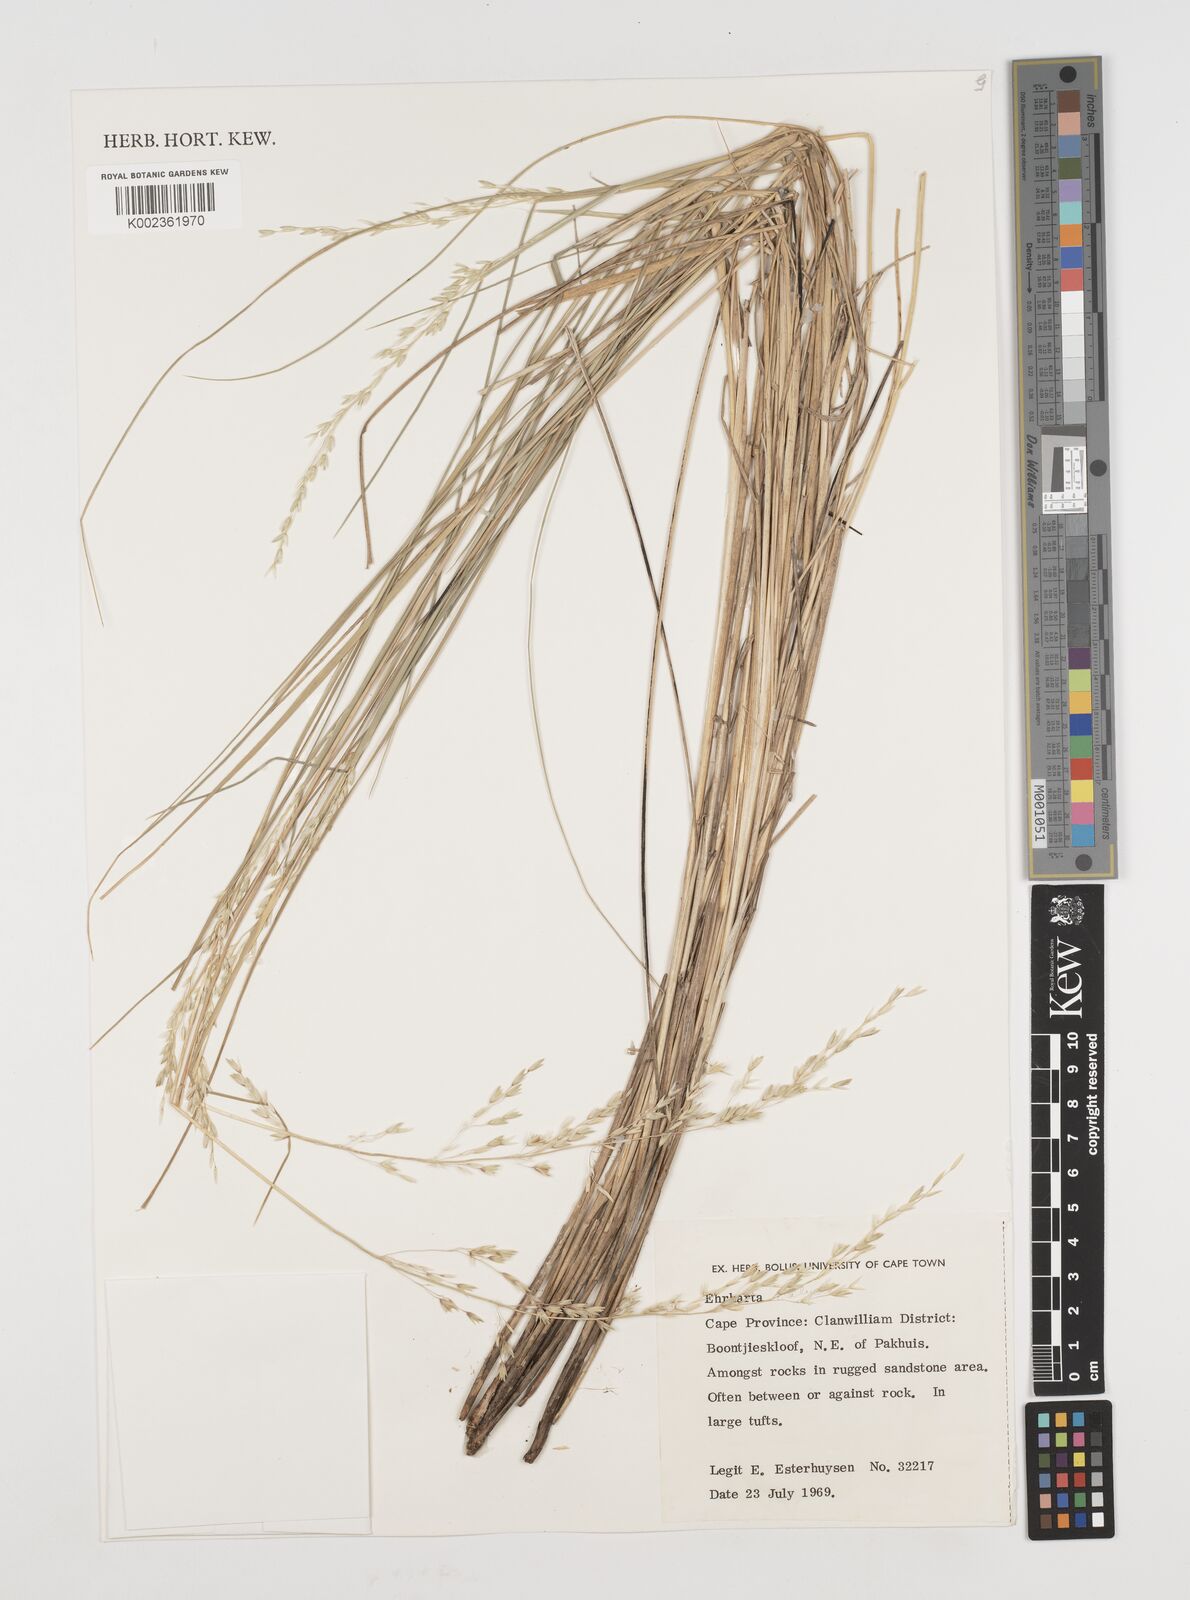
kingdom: Plantae
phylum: Tracheophyta
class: Liliopsida
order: Poales
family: Poaceae
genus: Ehrharta
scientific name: Ehrharta calycina
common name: Perennial veldtgrass
